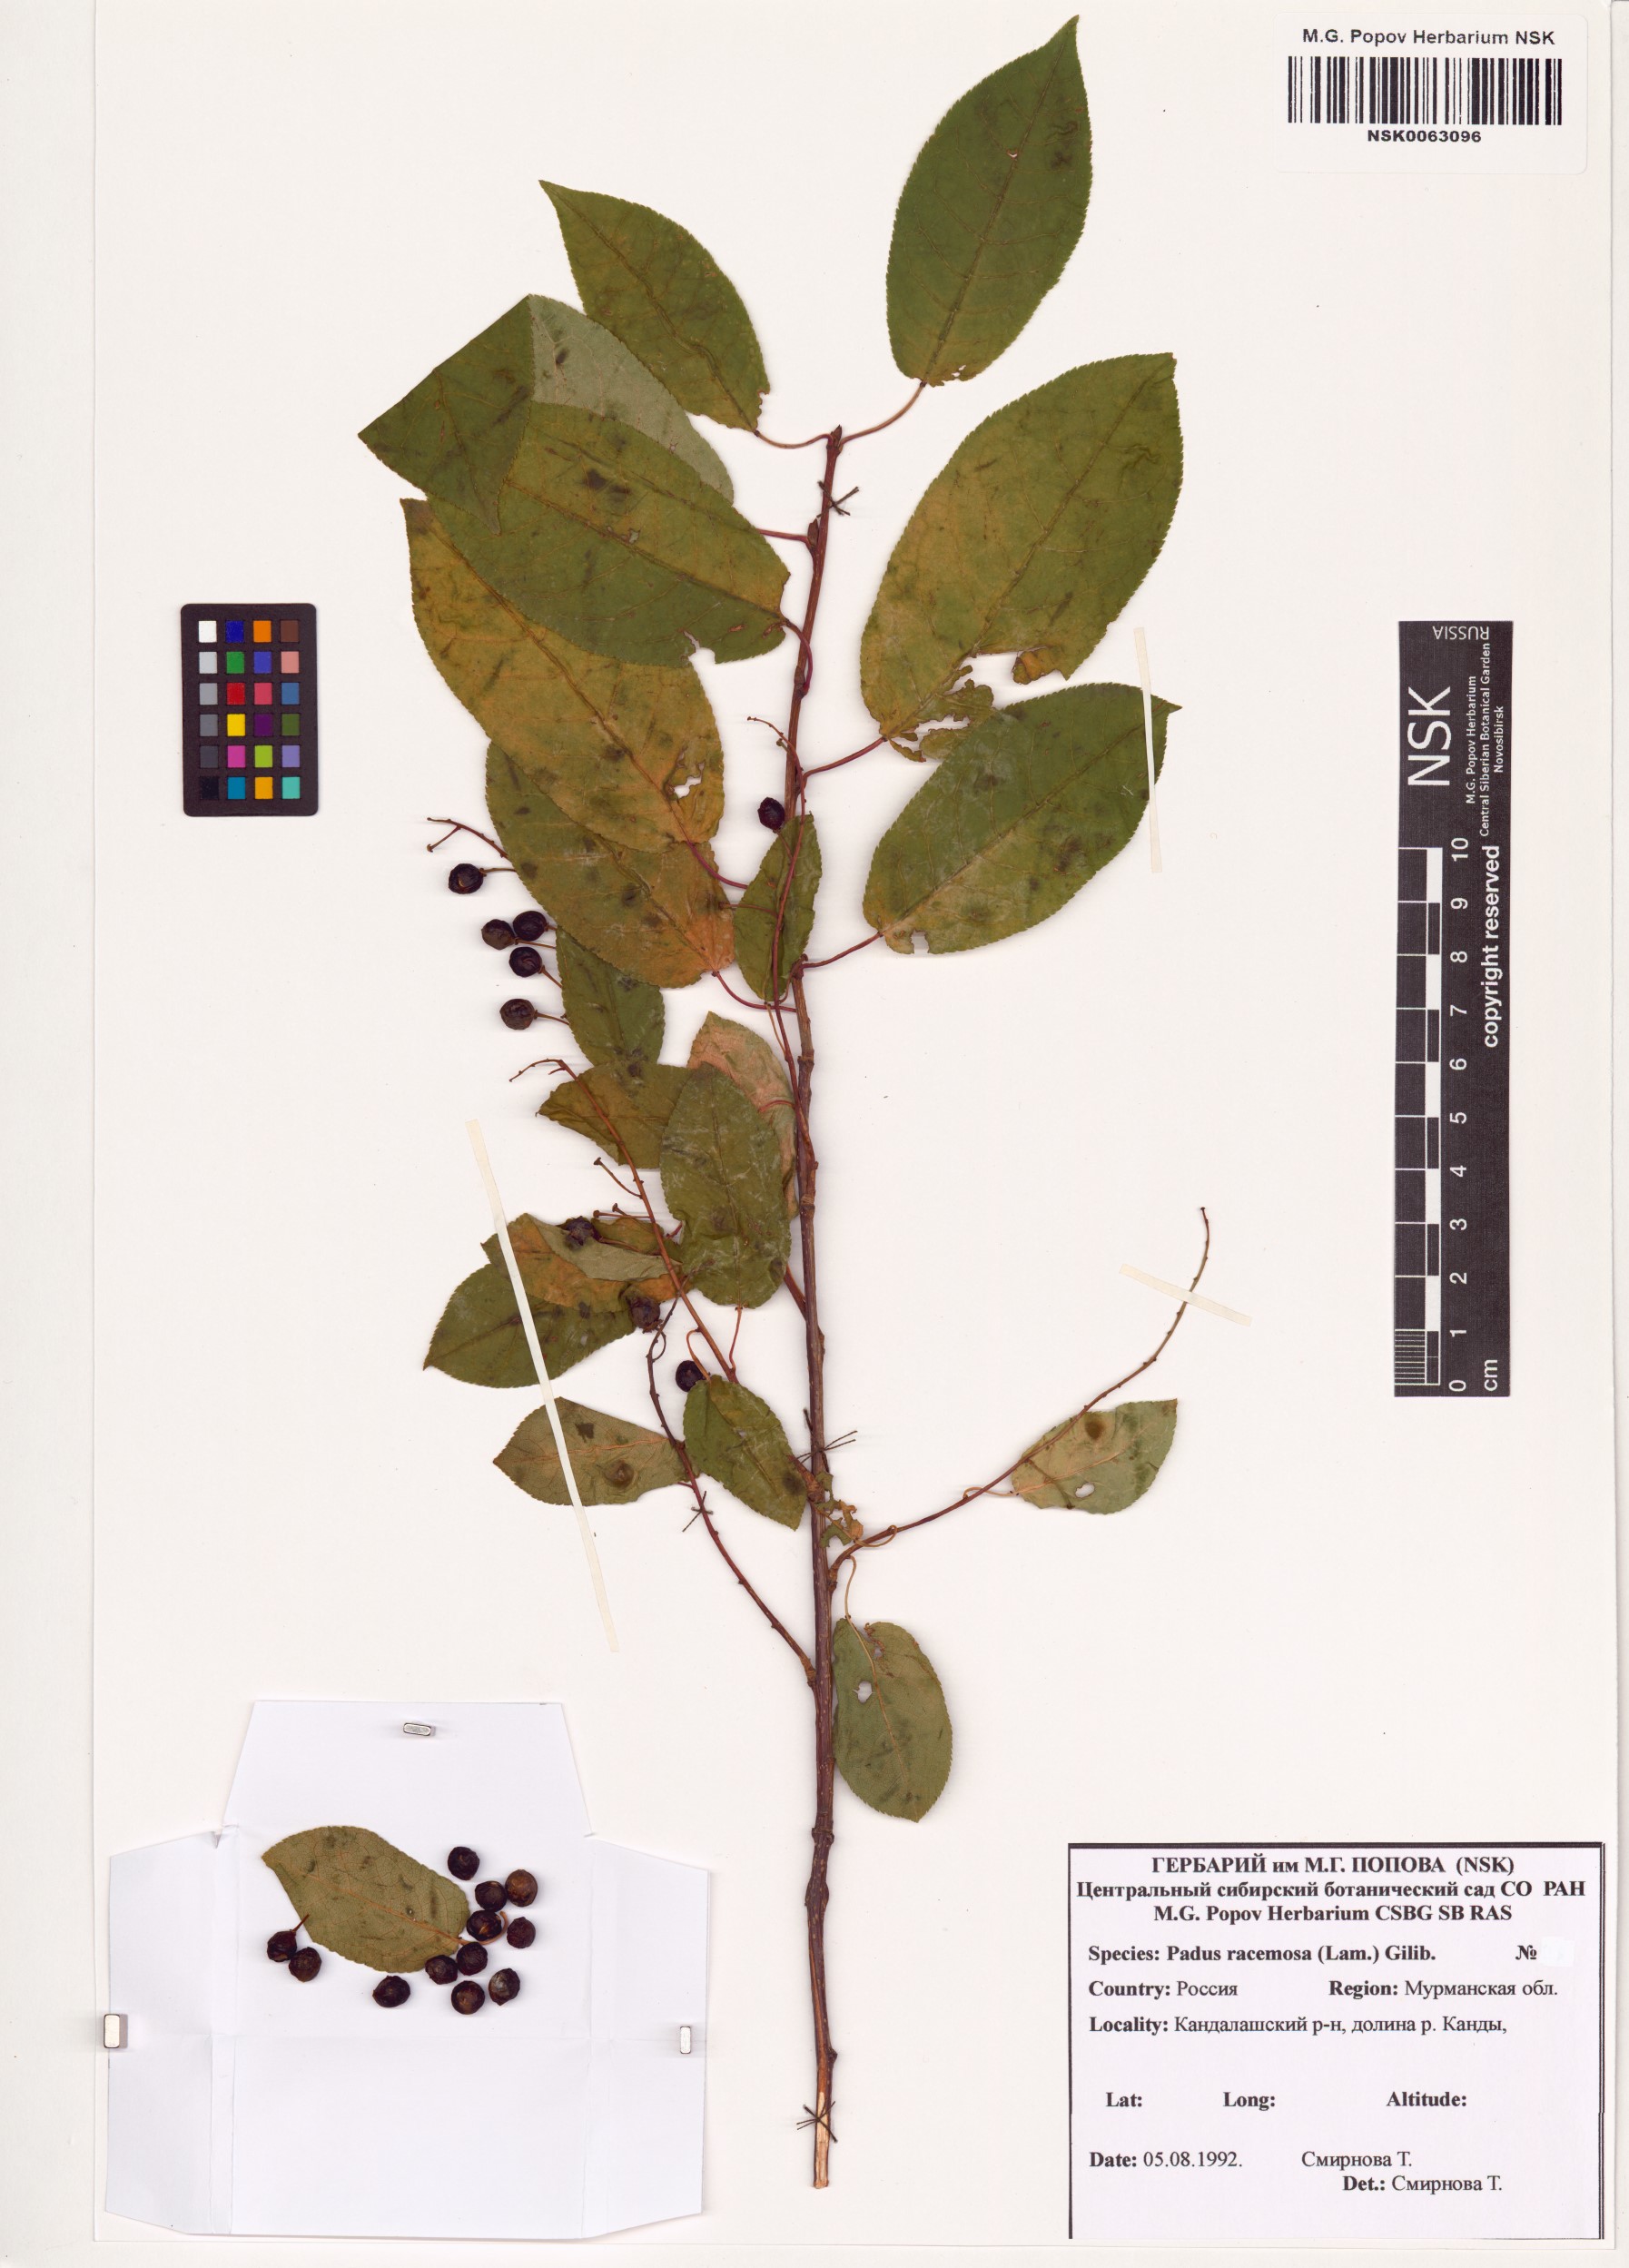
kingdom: Plantae
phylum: Tracheophyta
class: Magnoliopsida
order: Rosales
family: Rosaceae
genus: Prunus
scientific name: Prunus padus
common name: Bird cherry
